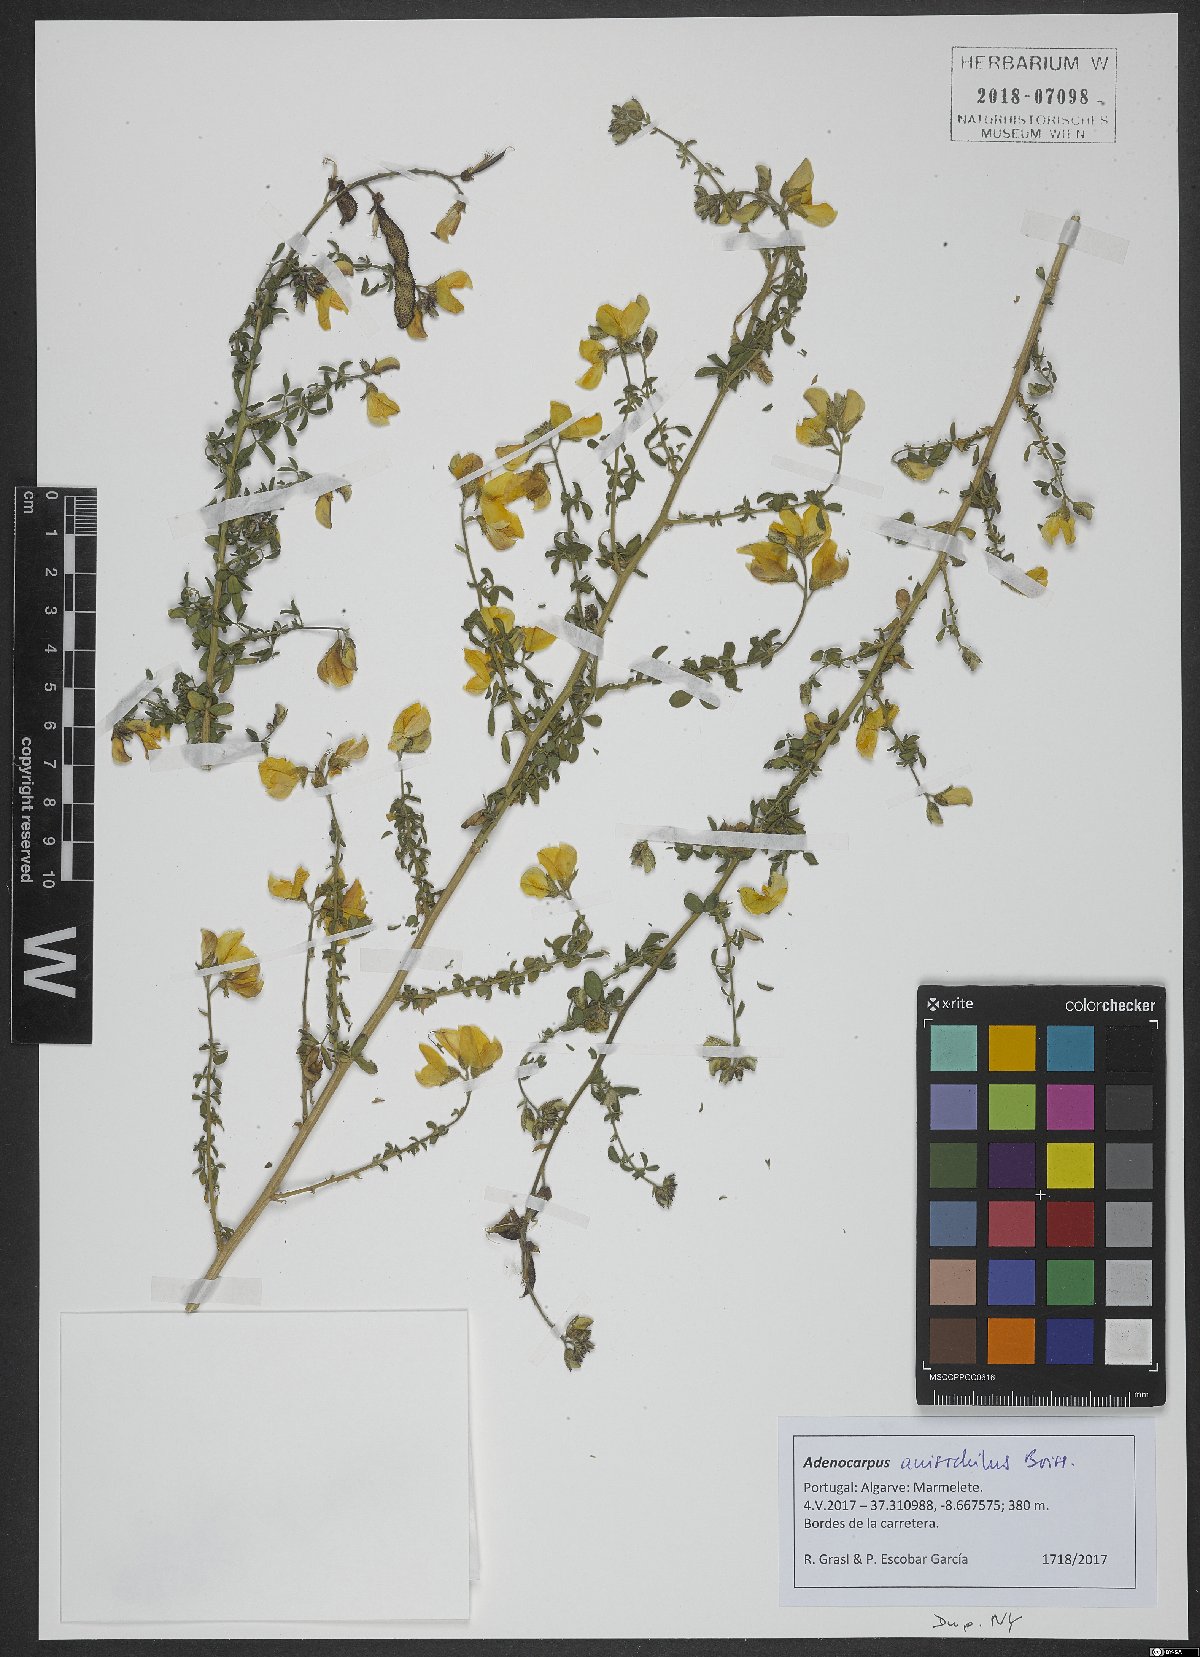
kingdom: Plantae
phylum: Tracheophyta
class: Magnoliopsida
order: Fabales
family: Fabaceae
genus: Adenocarpus
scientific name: Adenocarpus hispanicus
